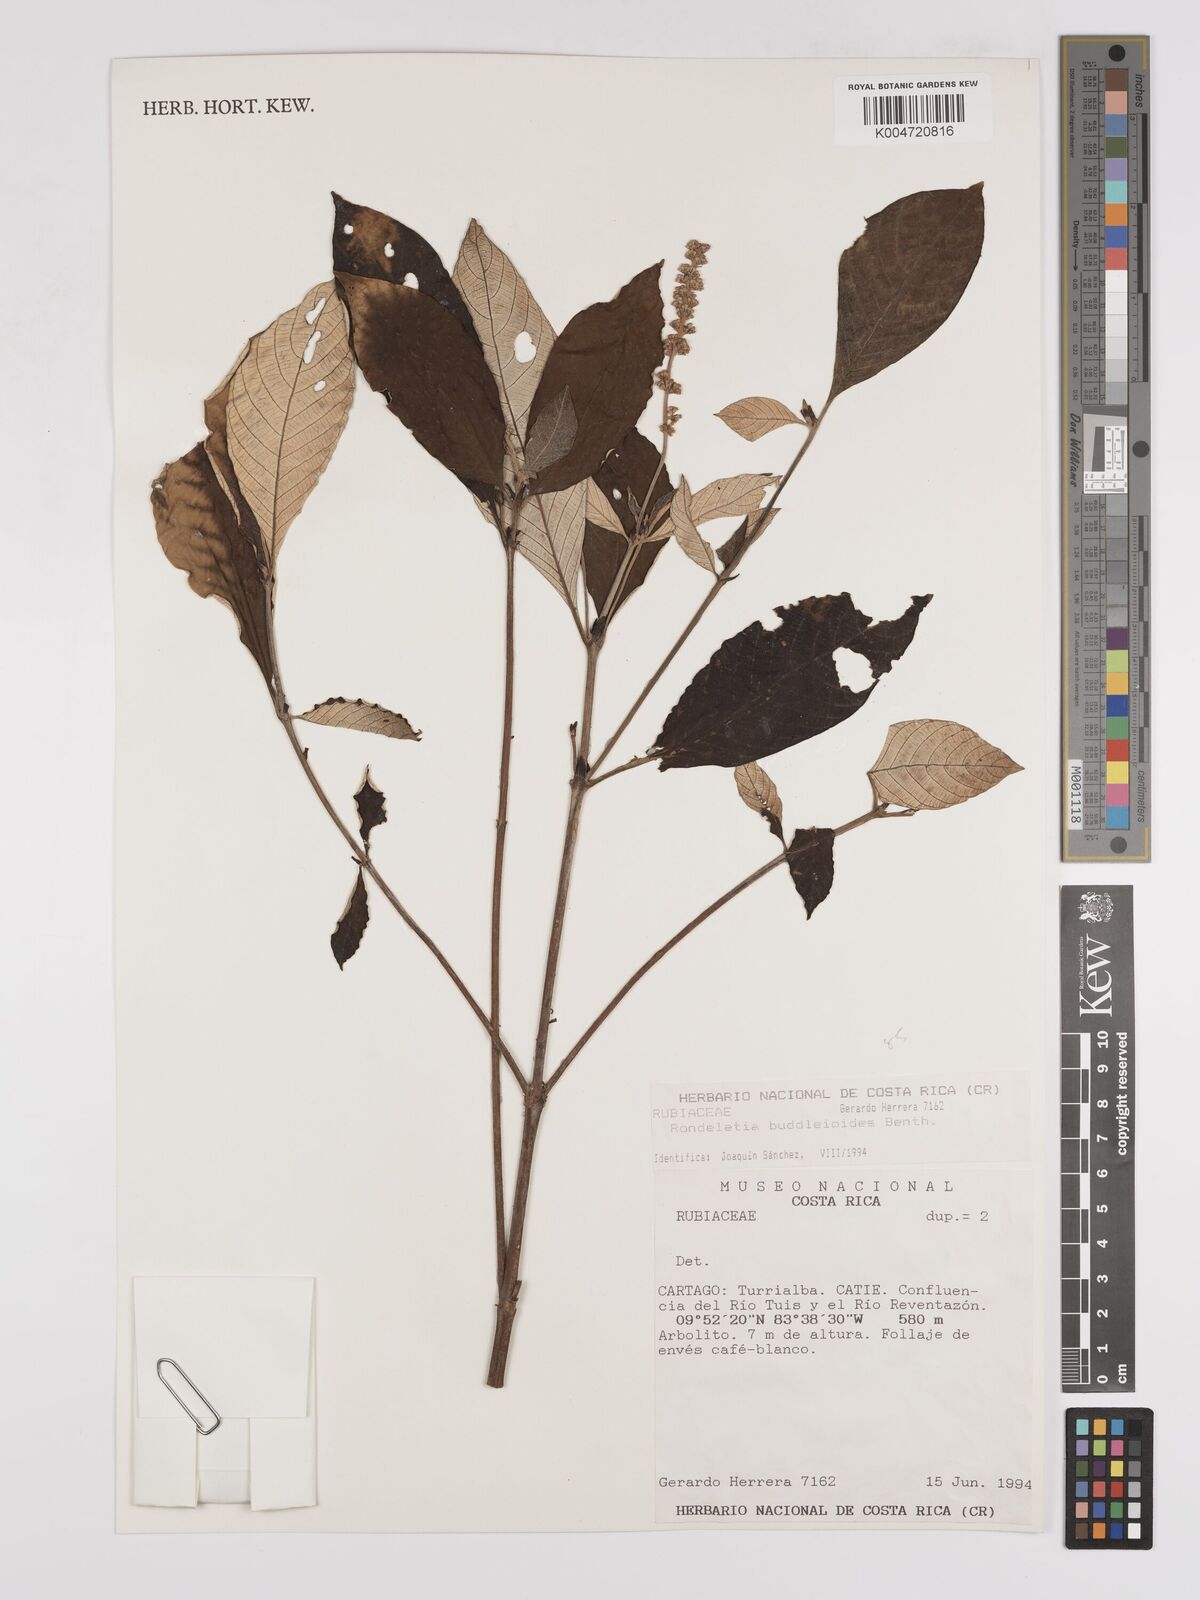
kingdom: Plantae
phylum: Tracheophyta
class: Magnoliopsida
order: Gentianales
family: Rubiaceae
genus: Arachnothryx
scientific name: Arachnothryx buddleioides
